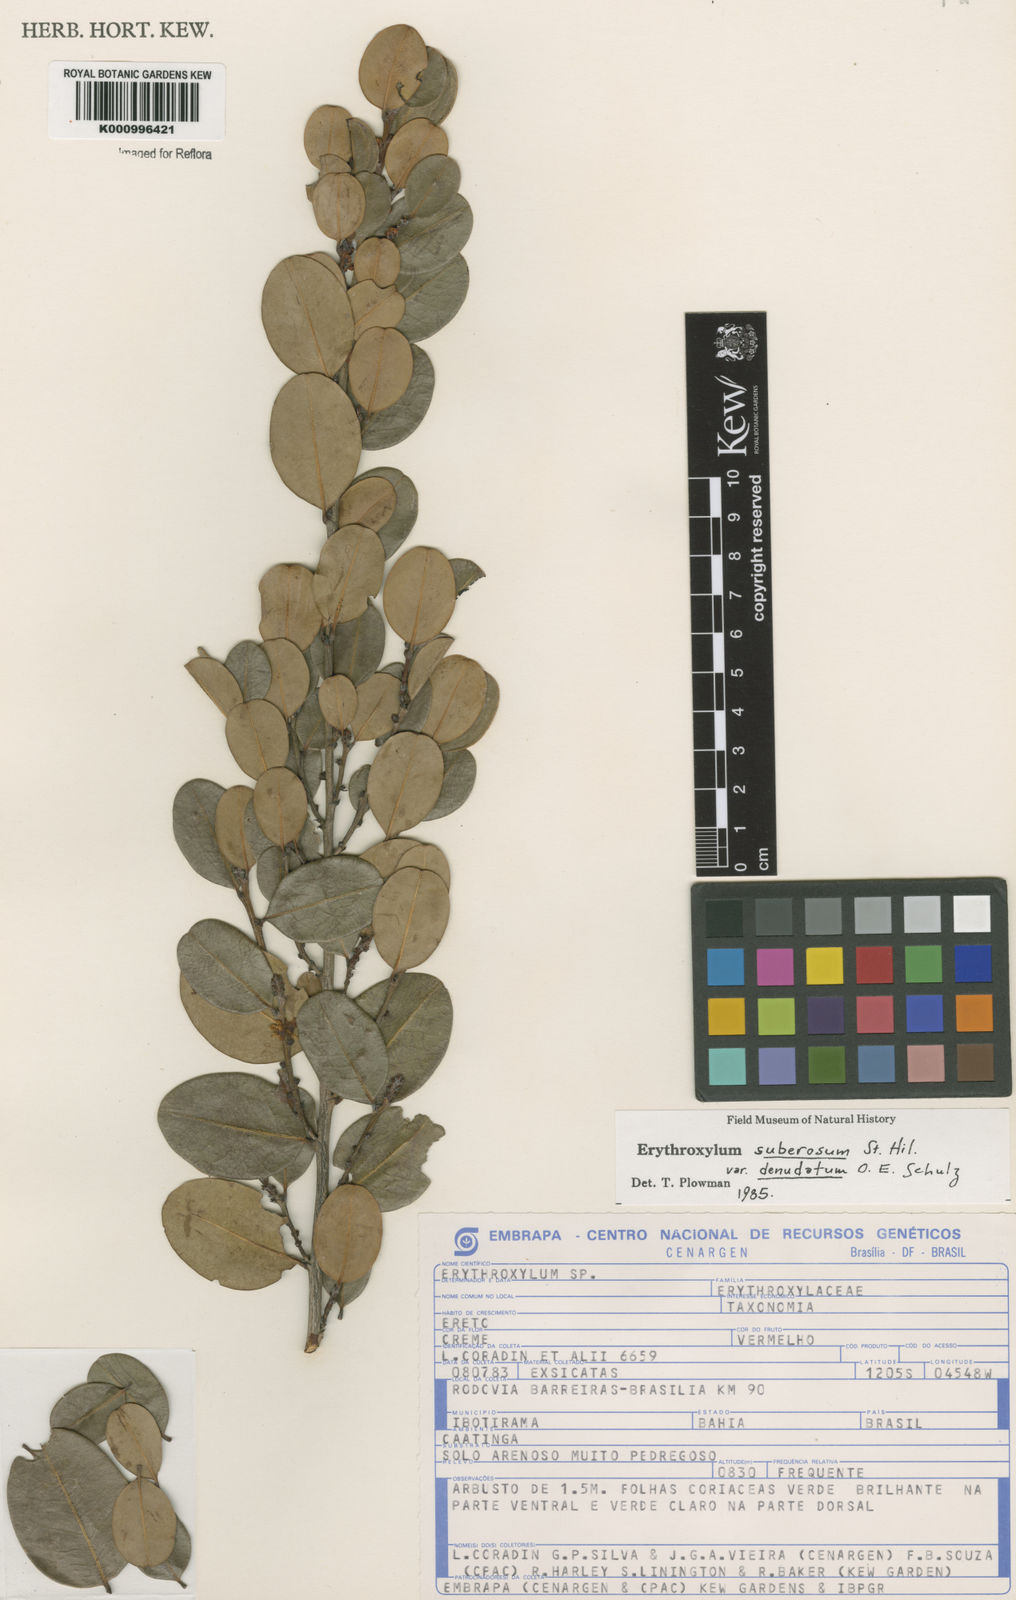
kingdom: Plantae
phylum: Tracheophyta
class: Magnoliopsida
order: Malpighiales
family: Erythroxylaceae
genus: Erythroxylum
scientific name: Erythroxylum rimosum
